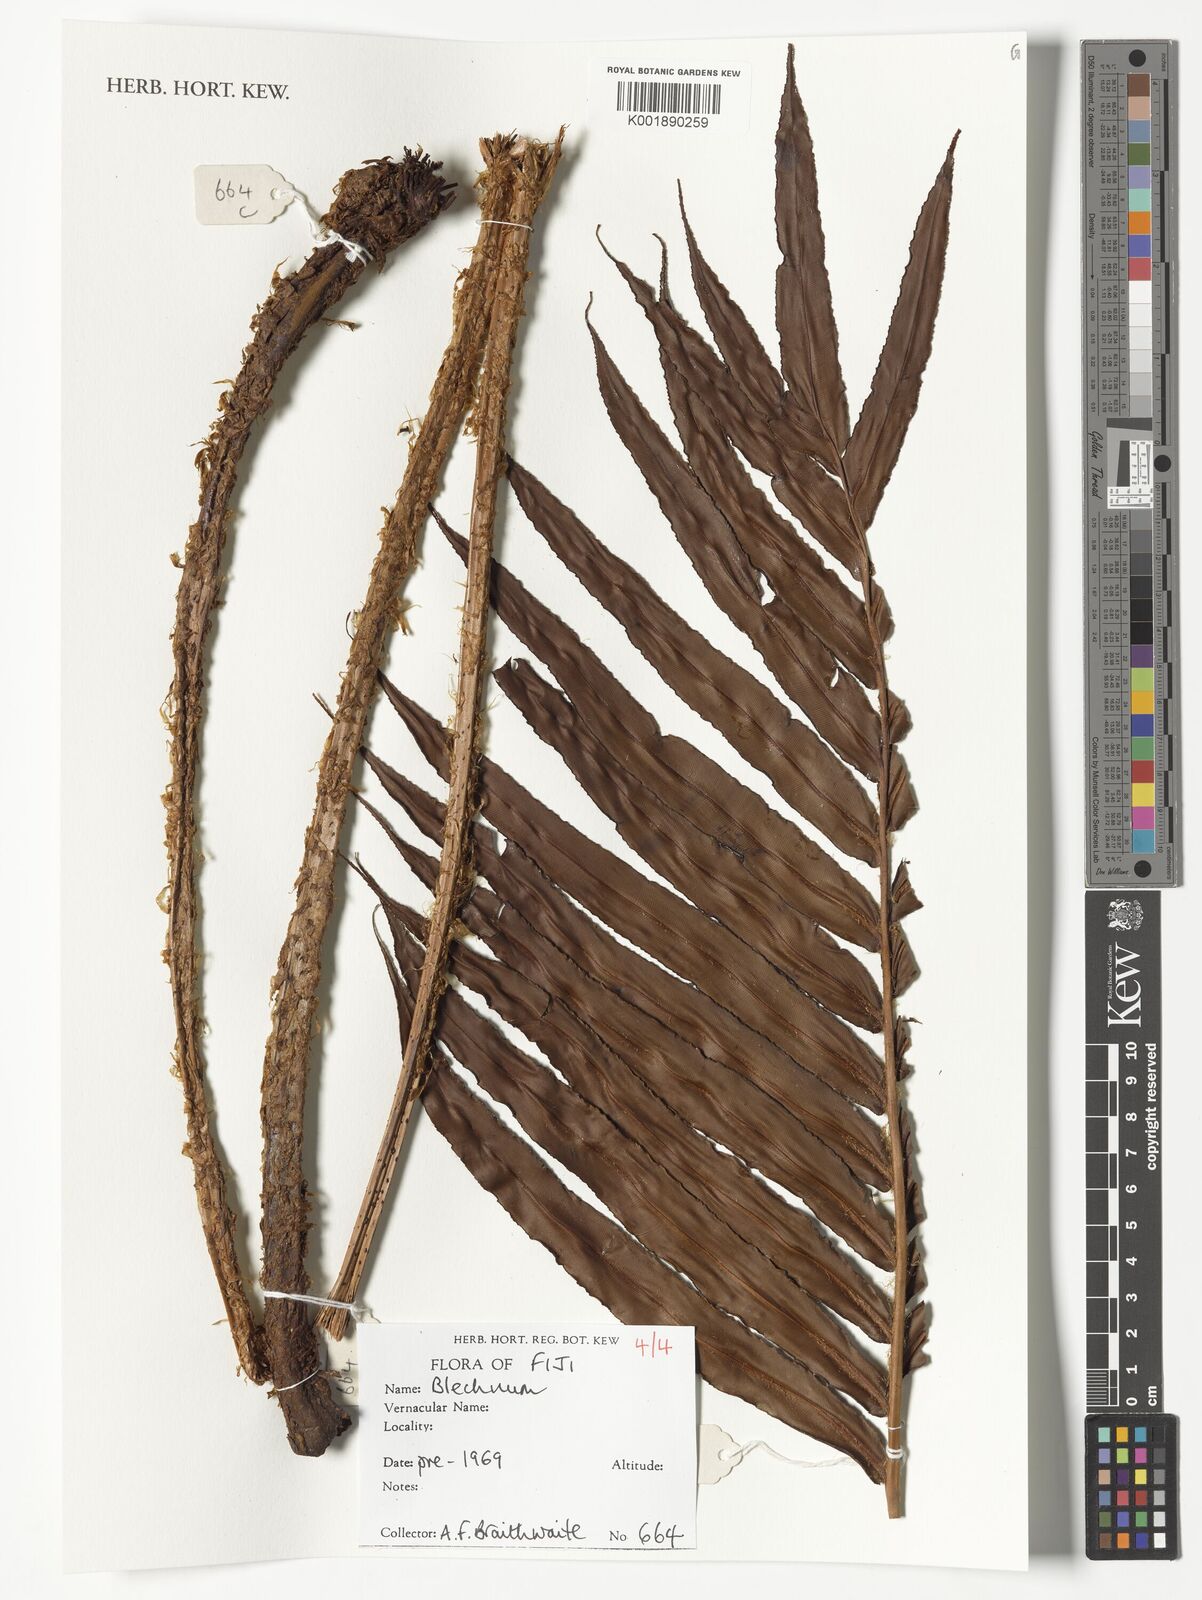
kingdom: Plantae
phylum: Tracheophyta
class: Polypodiopsida
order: Polypodiales
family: Blechnaceae
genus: Blechnum
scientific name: Blechnum
